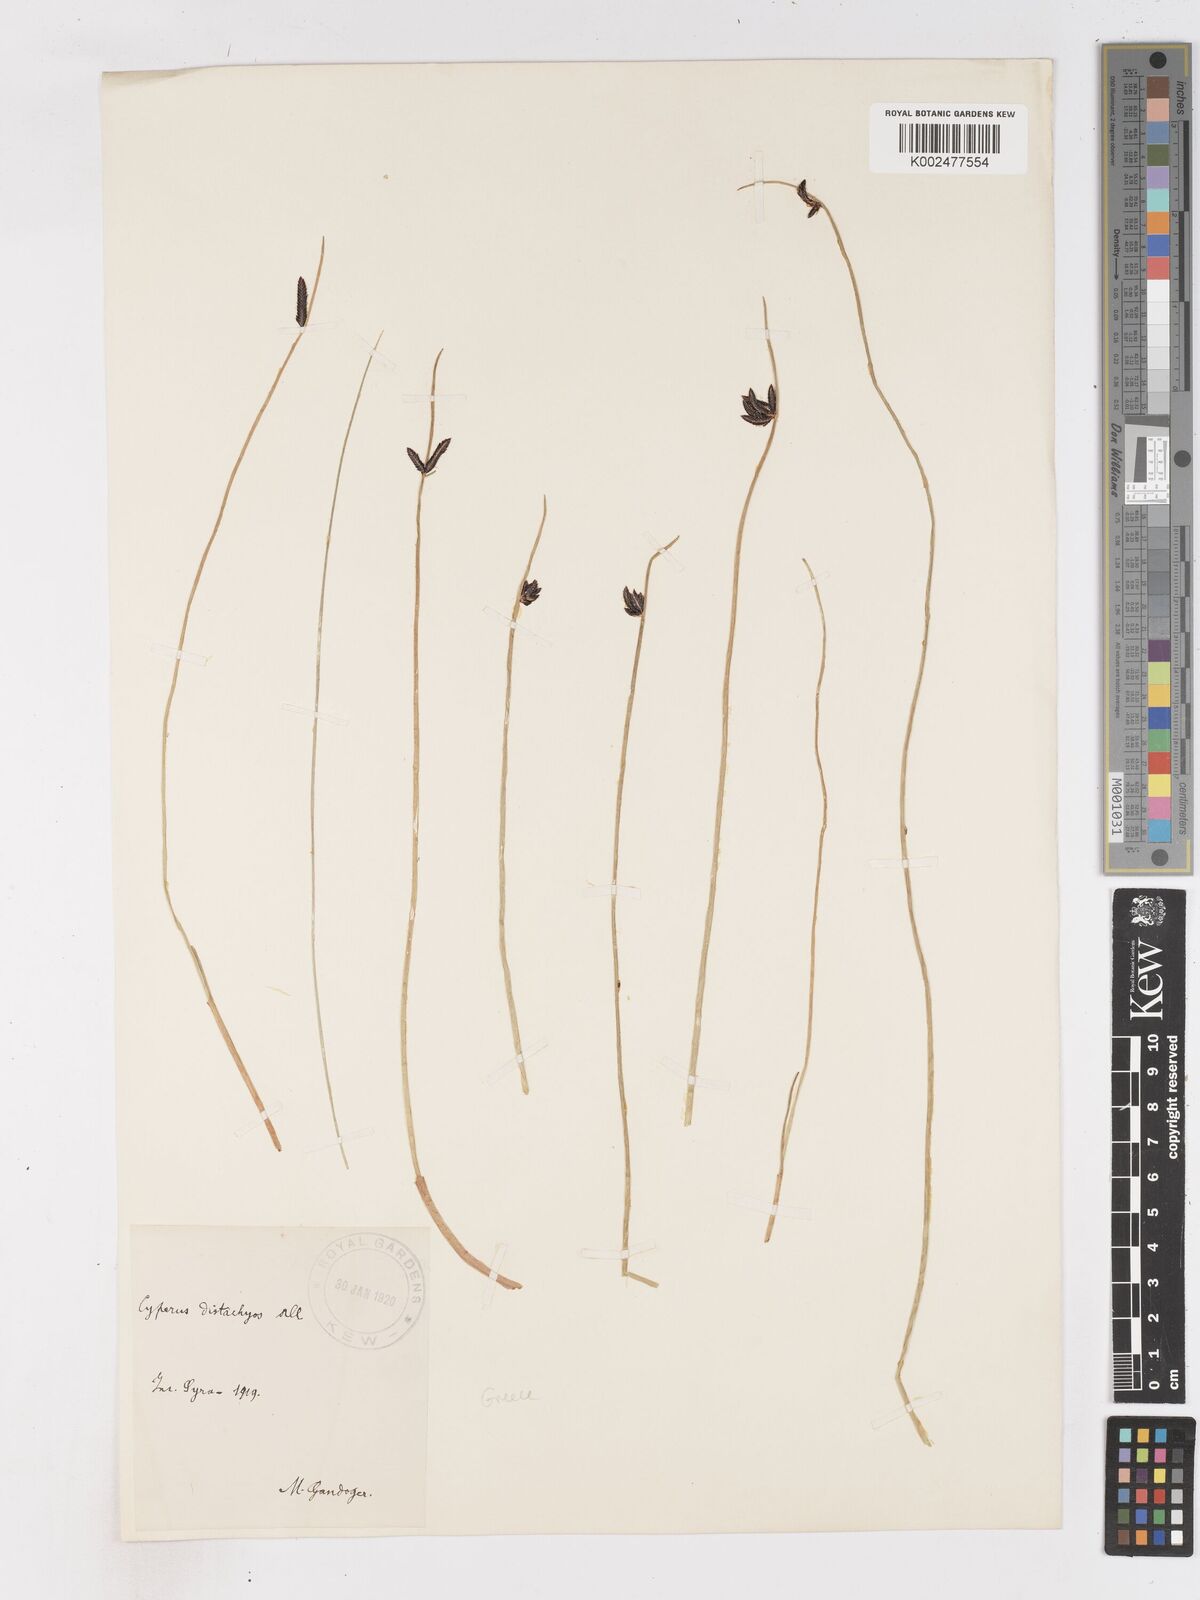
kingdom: Plantae
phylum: Tracheophyta
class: Liliopsida
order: Poales
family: Cyperaceae
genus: Cyperus
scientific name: Cyperus laevigatus
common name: Smooth flat sedge
